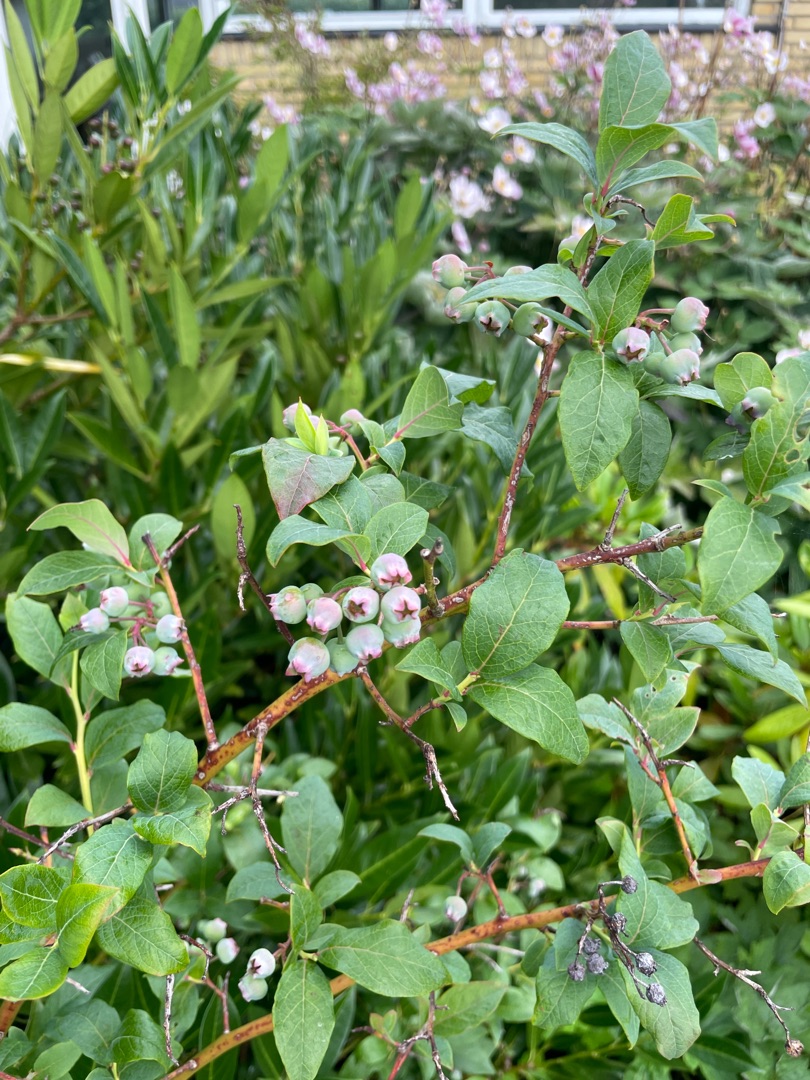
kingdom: Plantae
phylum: Tracheophyta
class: Magnoliopsida
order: Ericales
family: Ericaceae
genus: Vaccinium
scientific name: Vaccinium corymbosum
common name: Amerikansk blåbær
